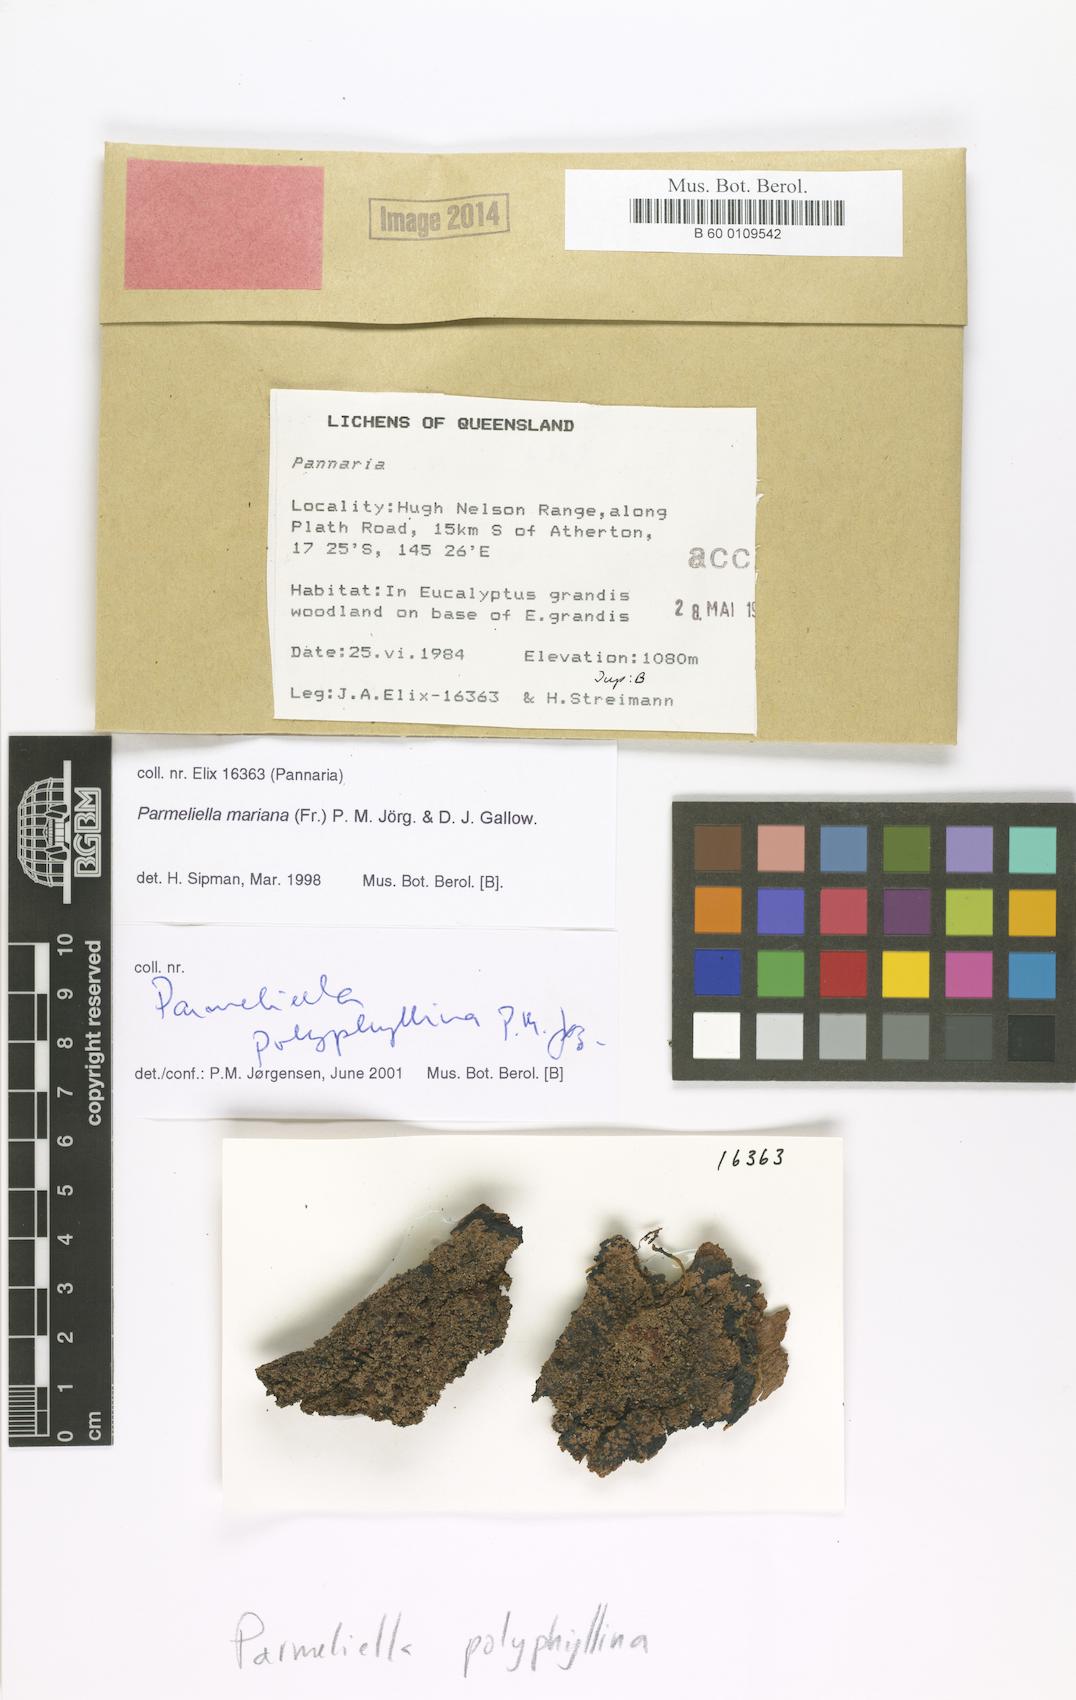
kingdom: Fungi
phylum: Ascomycota
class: Lecanoromycetes
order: Peltigerales
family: Pannariaceae
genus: Lepidocollema
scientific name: Lepidocollema polyphyllinum
